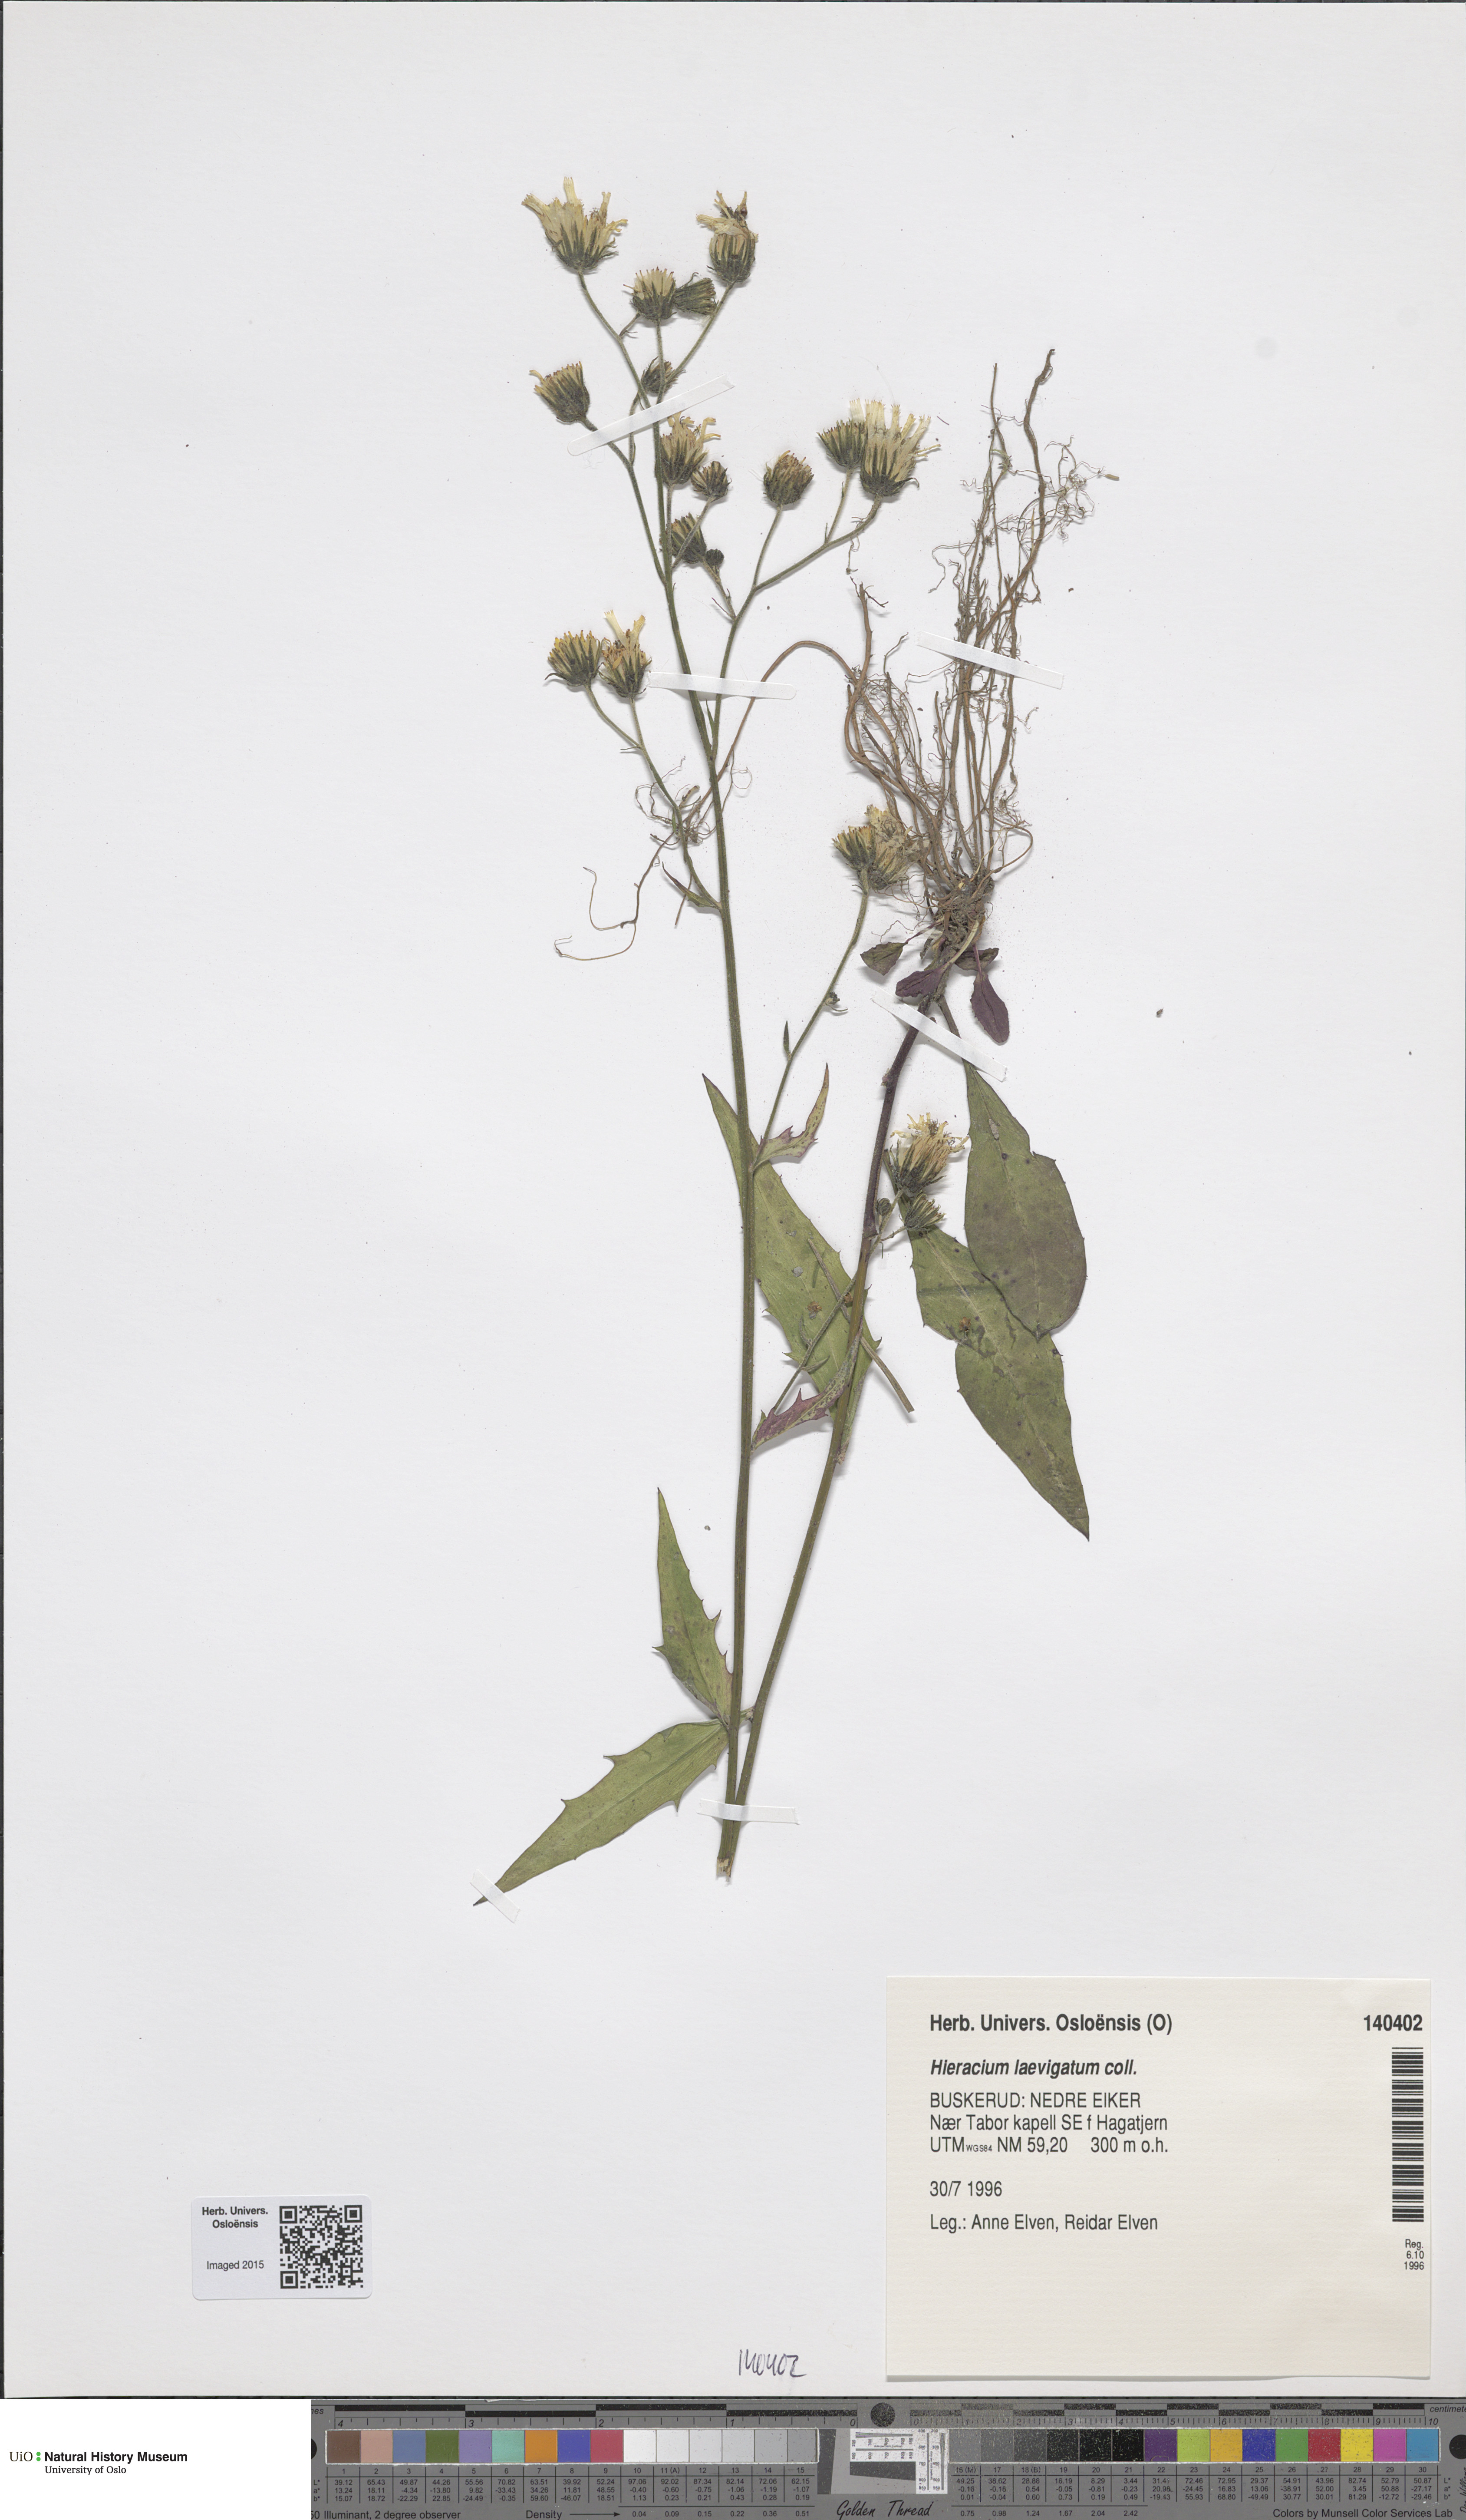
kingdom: Plantae
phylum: Tracheophyta
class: Magnoliopsida
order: Asterales
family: Asteraceae
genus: Hieracium
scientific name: Hieracium laevigatum
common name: Smooth hawkweed
